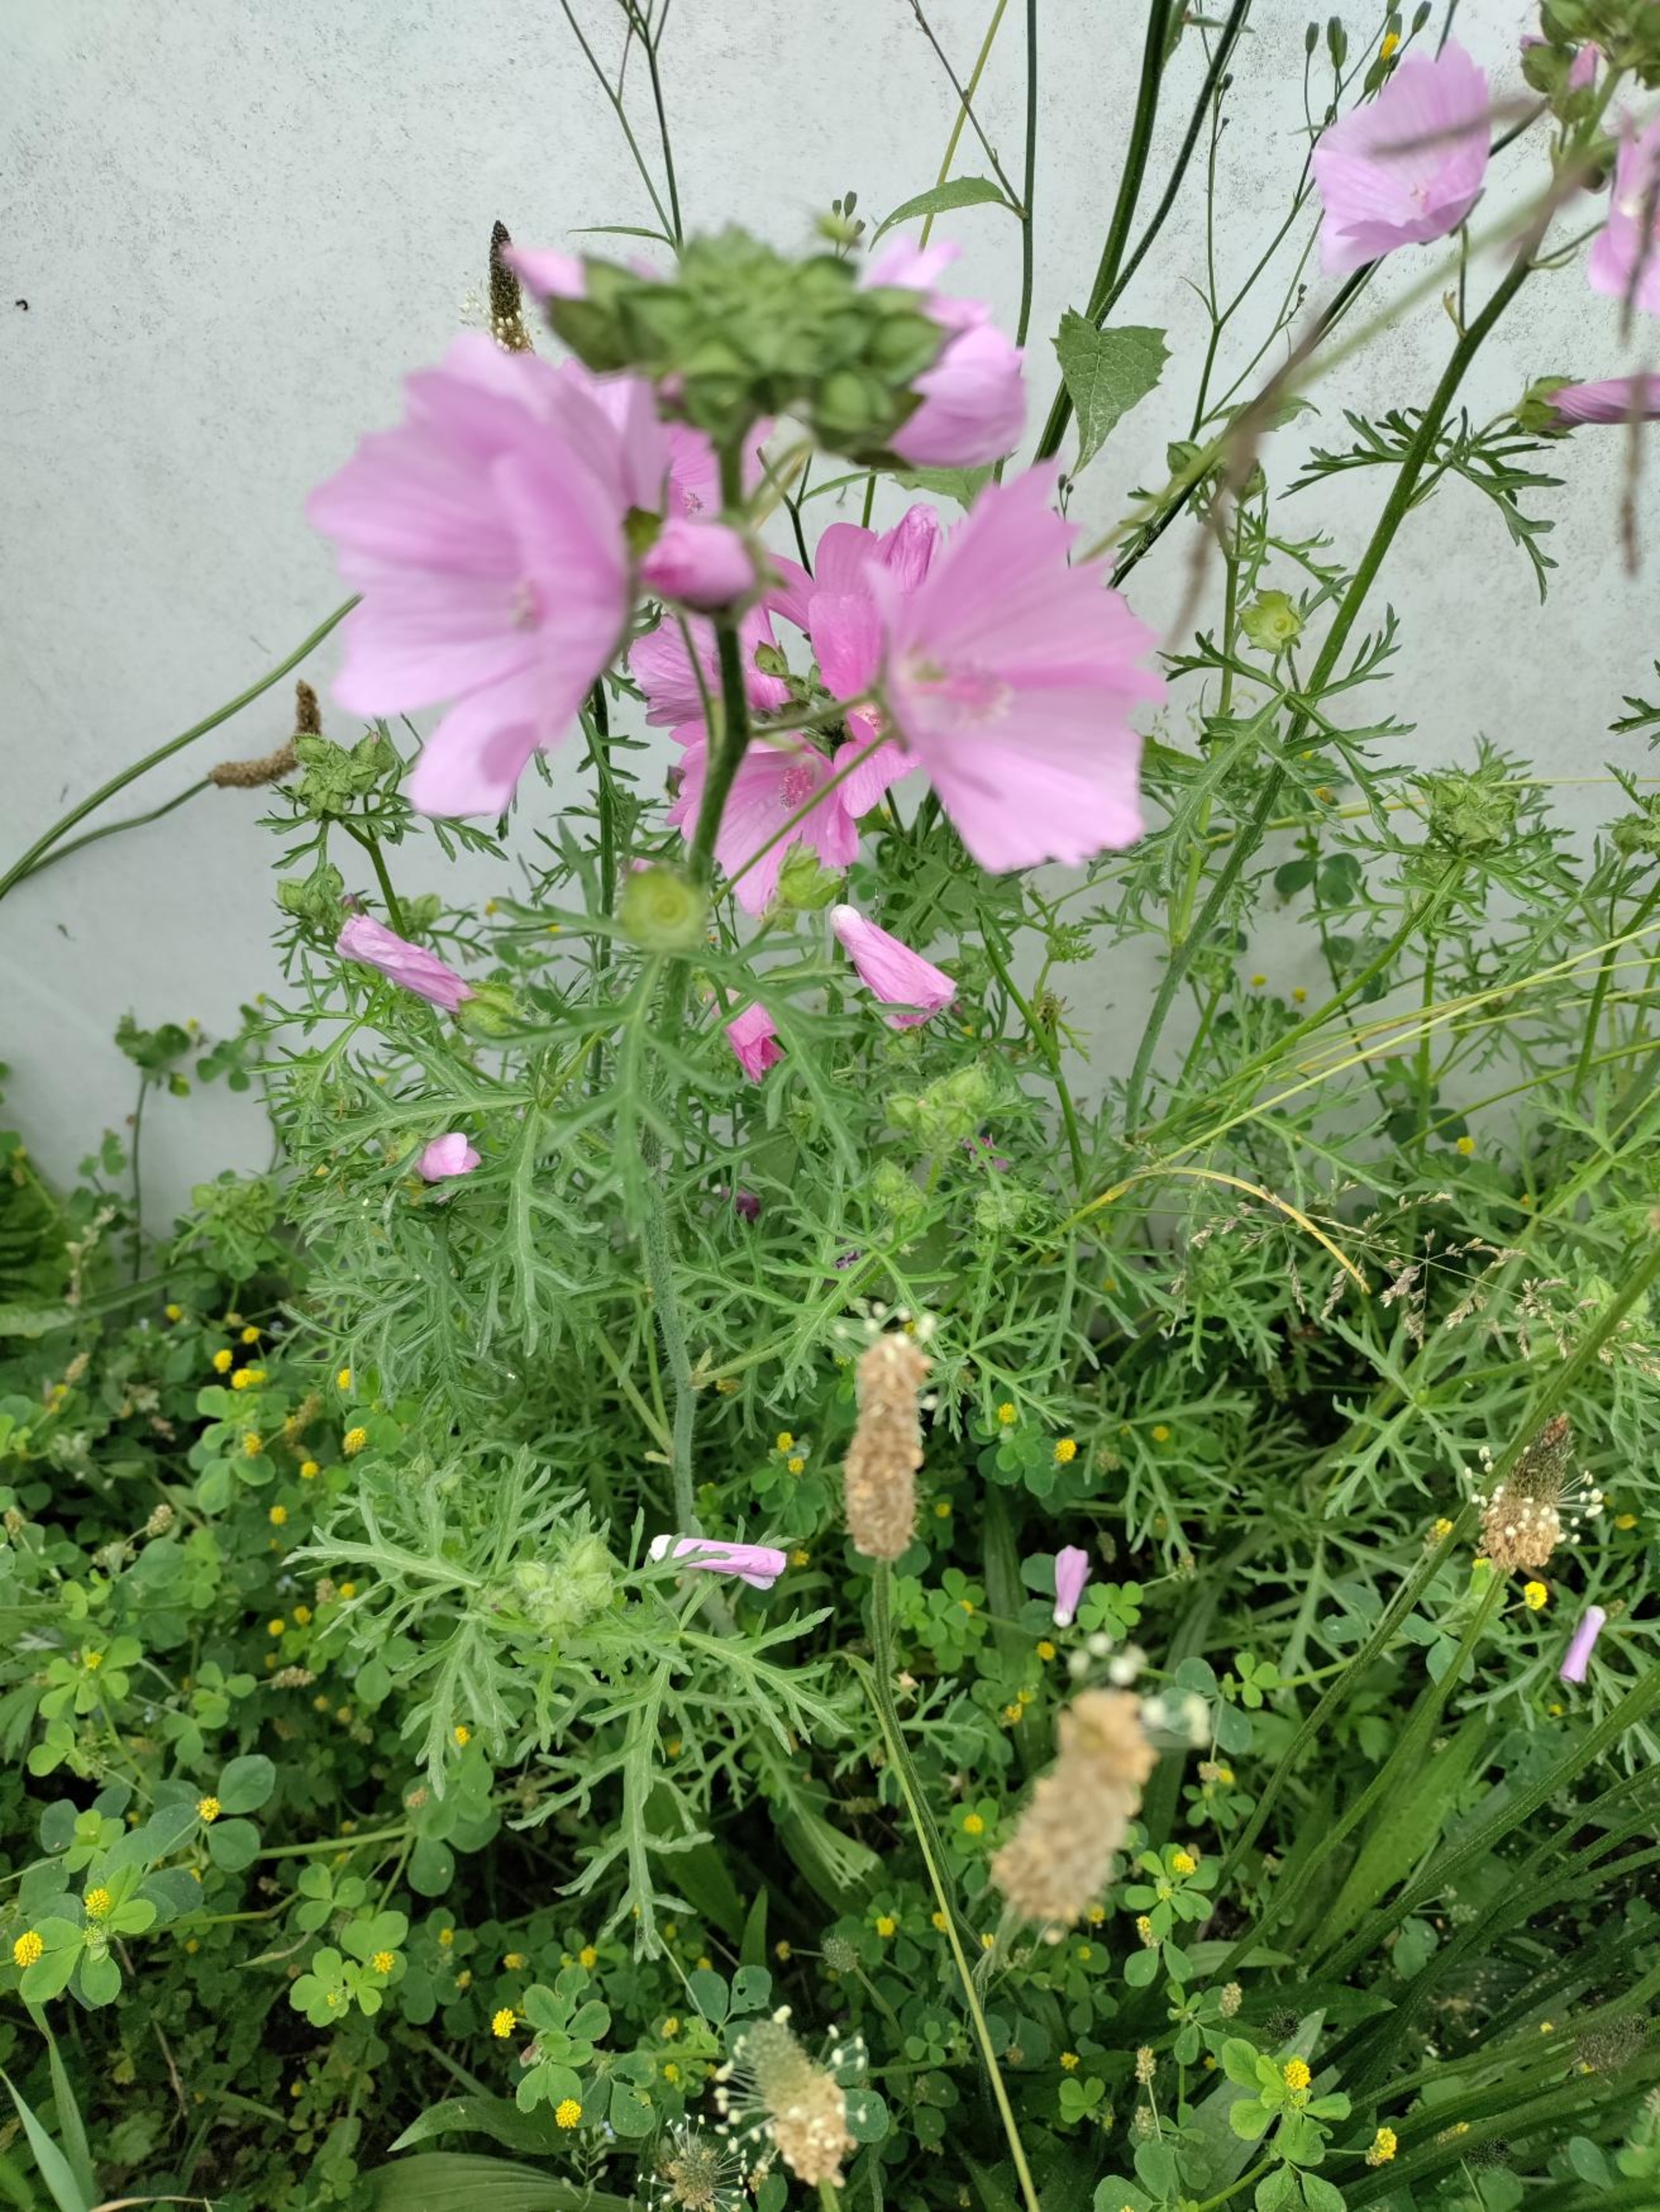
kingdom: Plantae
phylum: Tracheophyta
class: Magnoliopsida
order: Malvales
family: Malvaceae
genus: Malva
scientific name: Malva moschata
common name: Moskus-katost
